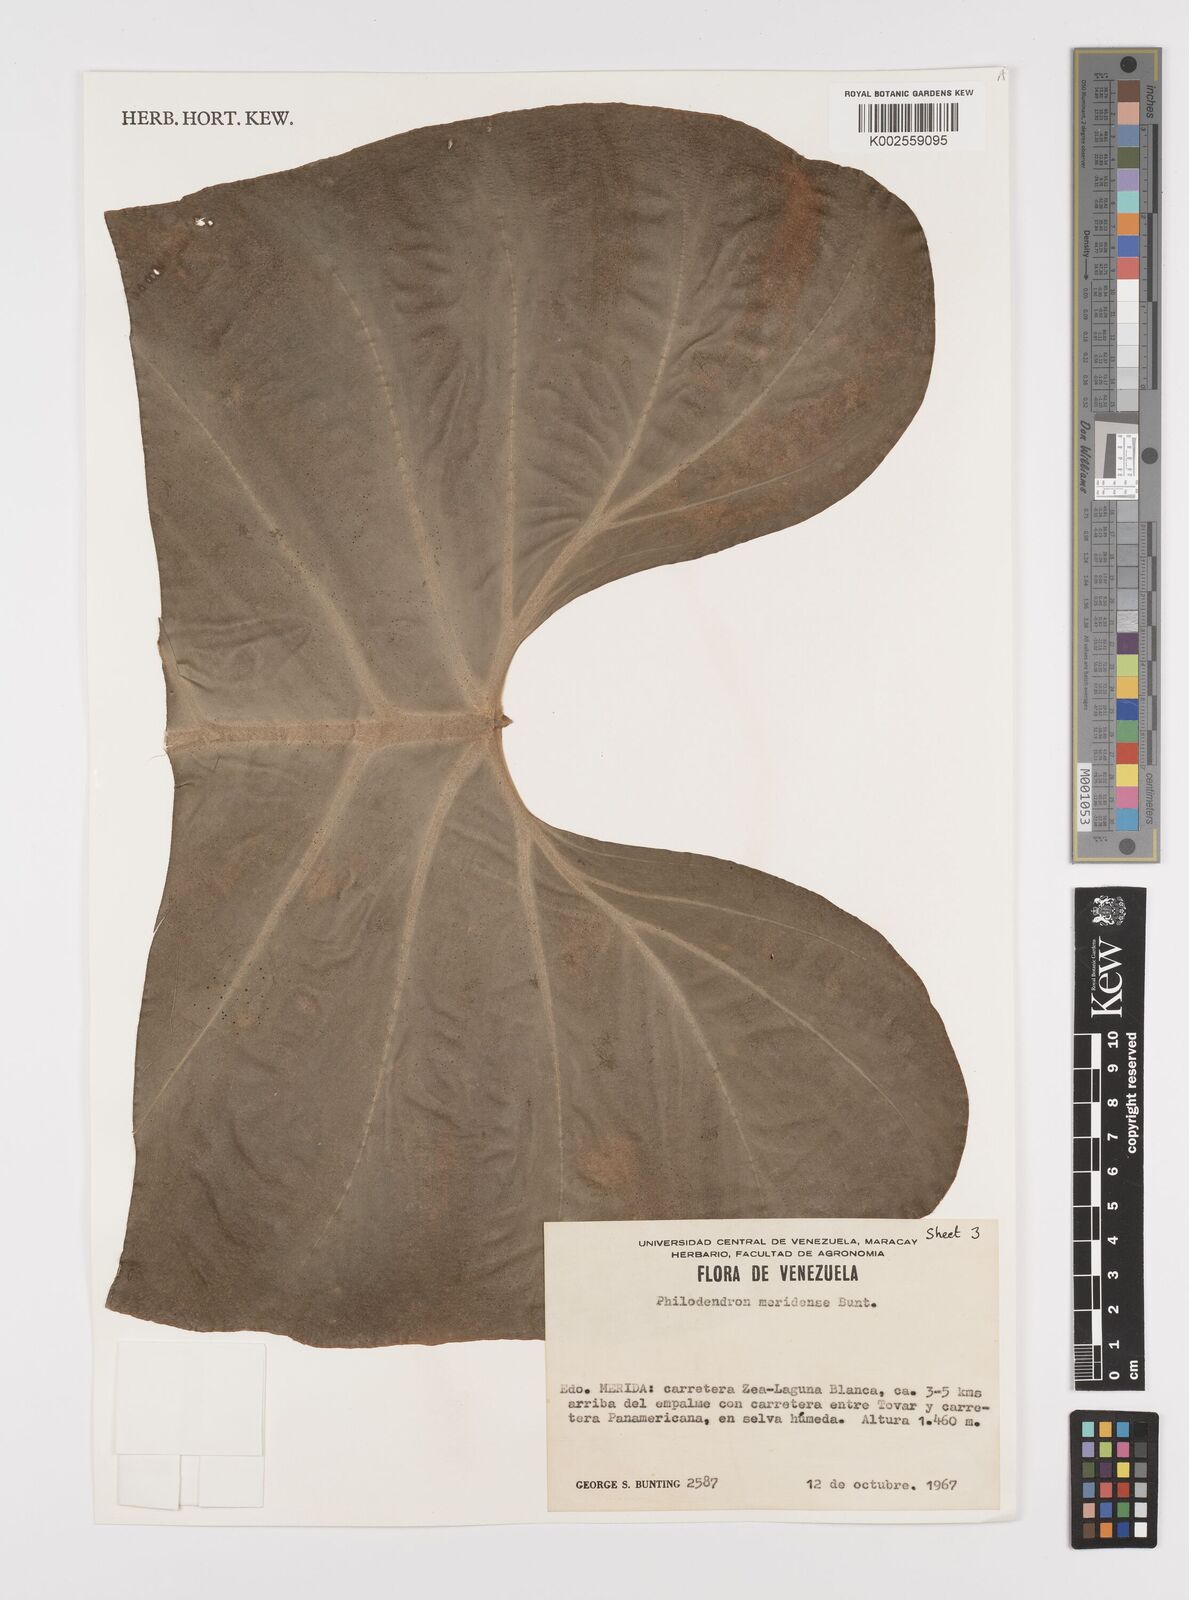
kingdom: Plantae
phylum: Tracheophyta
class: Liliopsida
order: Alismatales
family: Araceae
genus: Philodendron
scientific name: Philodendron meridense
